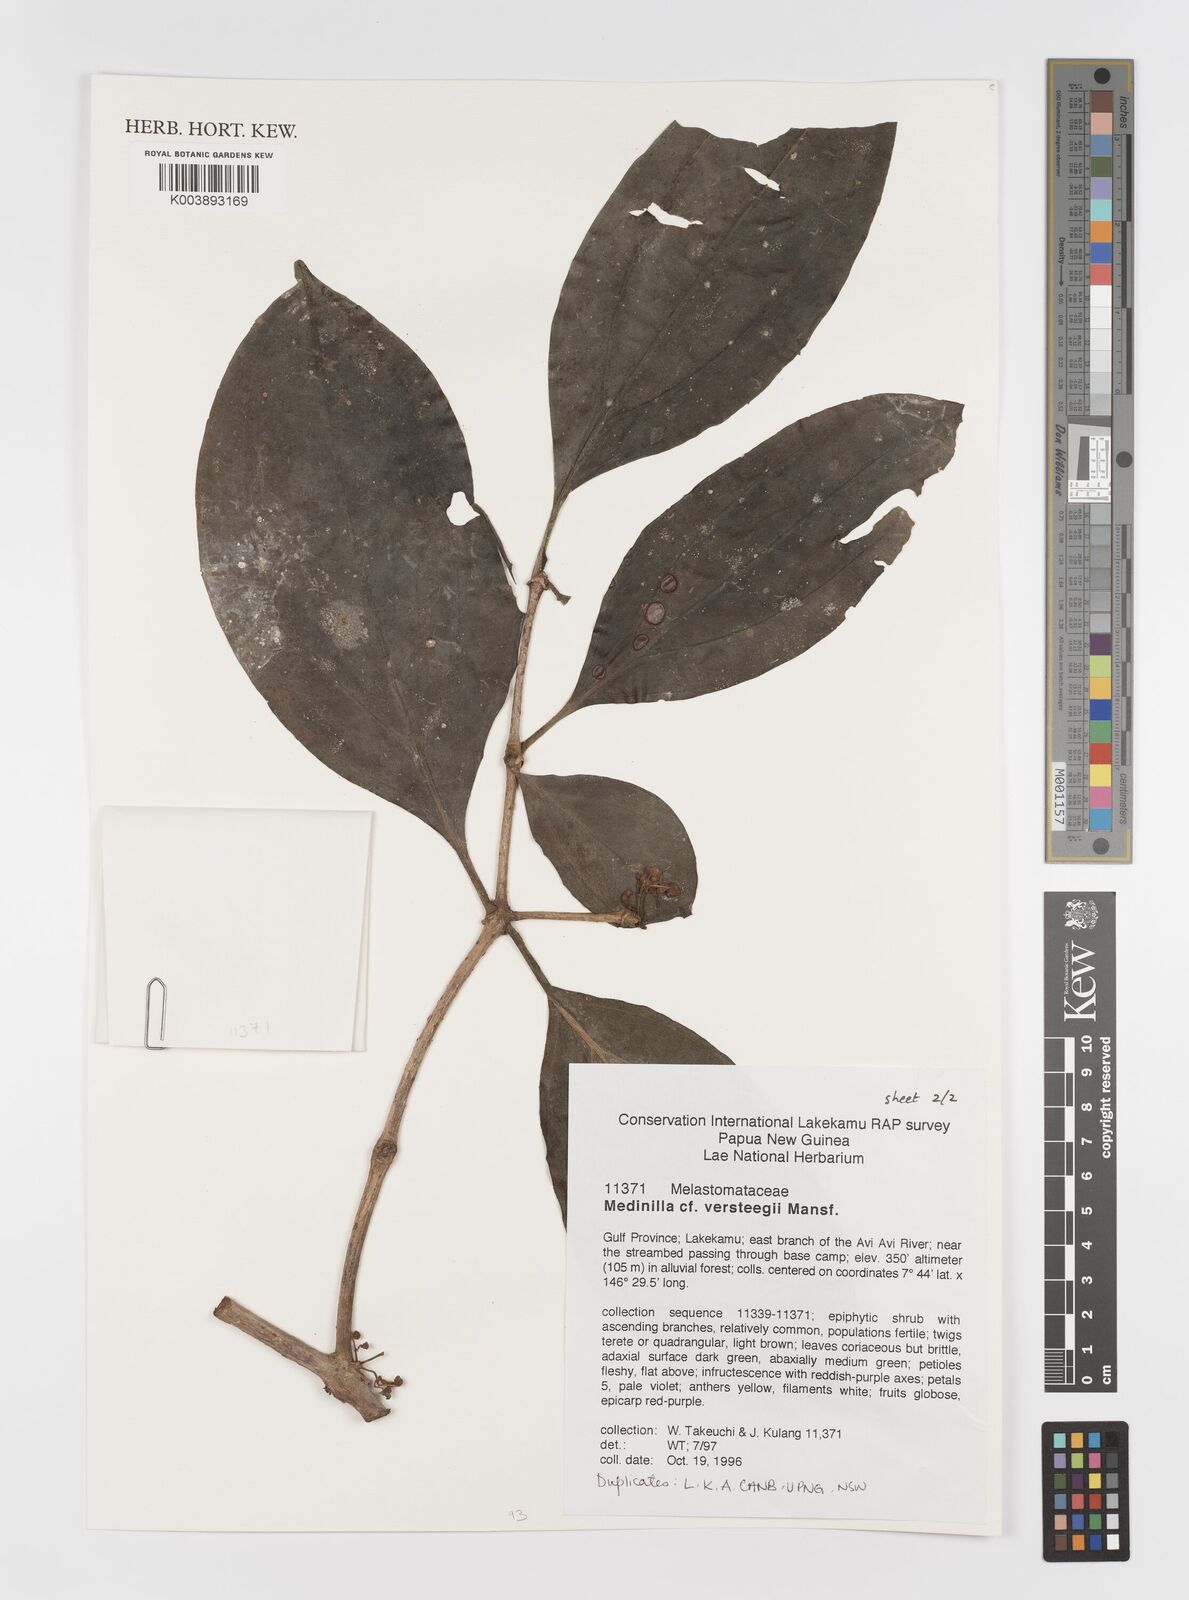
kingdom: Plantae
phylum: Tracheophyta
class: Magnoliopsida
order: Myrtales
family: Melastomataceae
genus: Medinilla
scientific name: Medinilla versteegii
